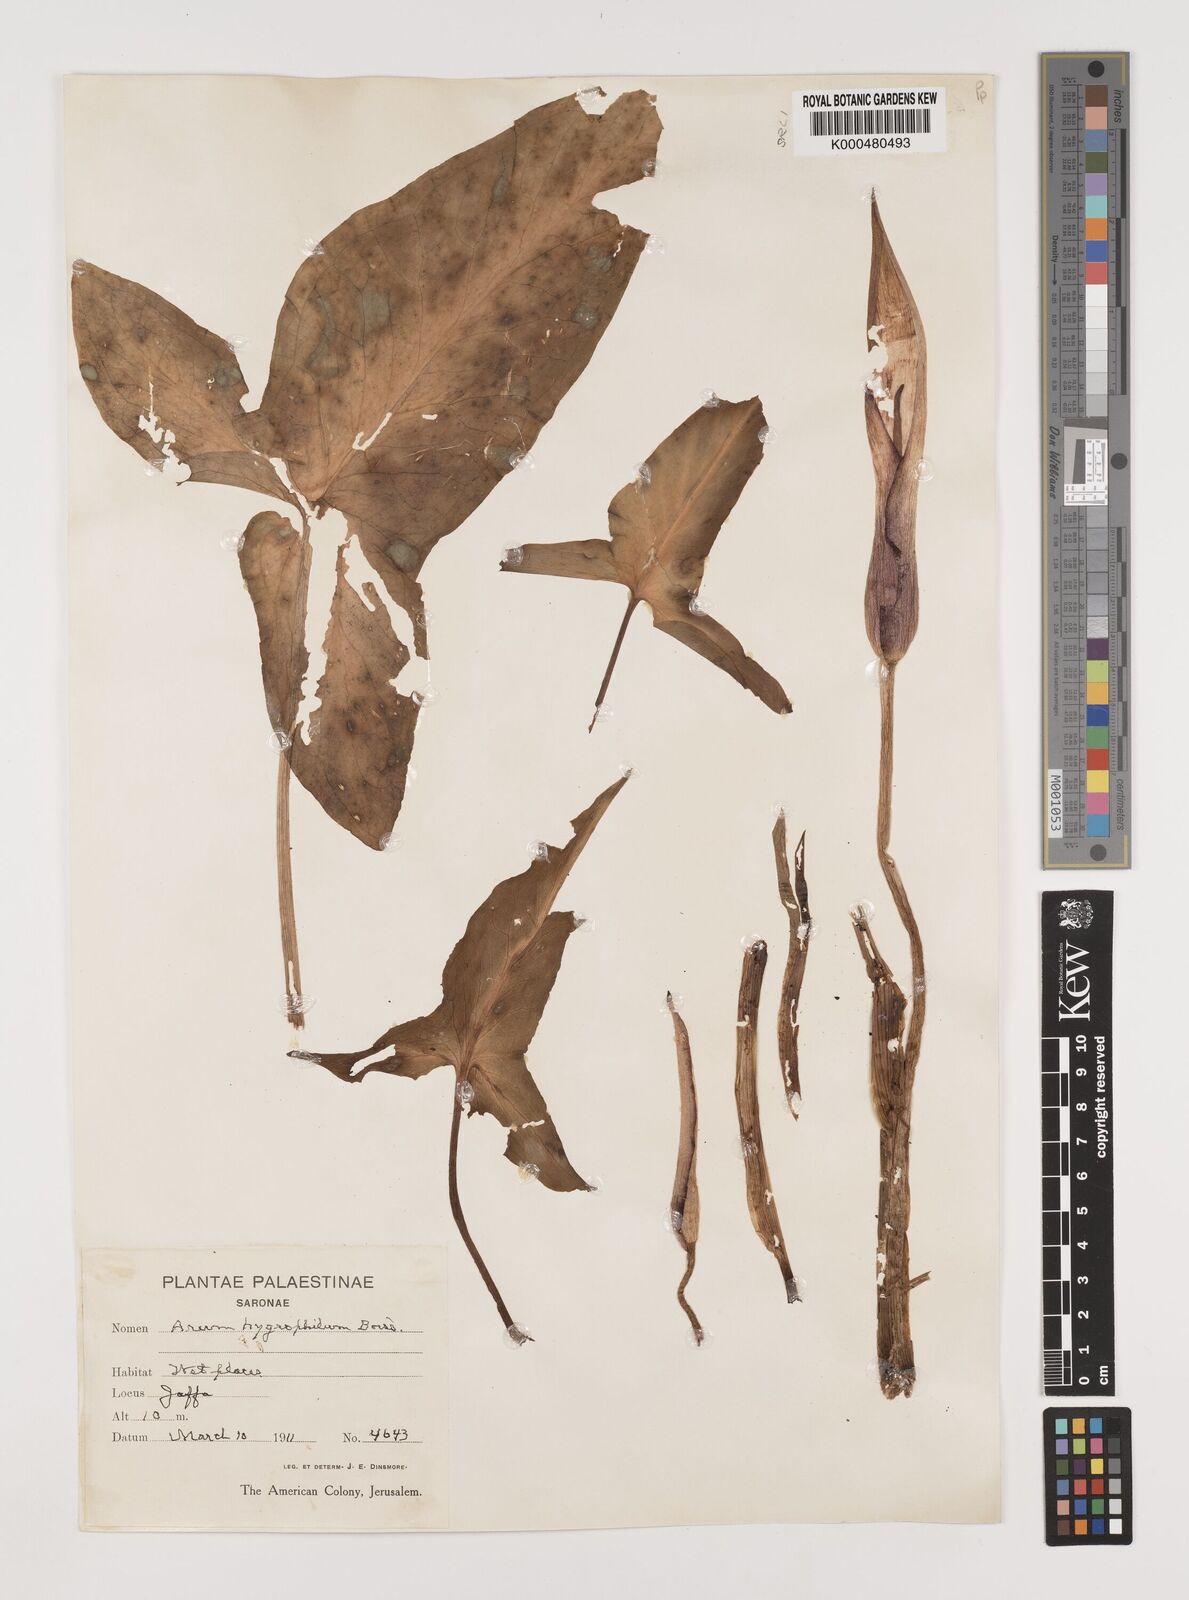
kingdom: Plantae
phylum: Tracheophyta
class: Liliopsida
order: Alismatales
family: Araceae
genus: Arum
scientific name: Arum hygrophilum
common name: Water arum
